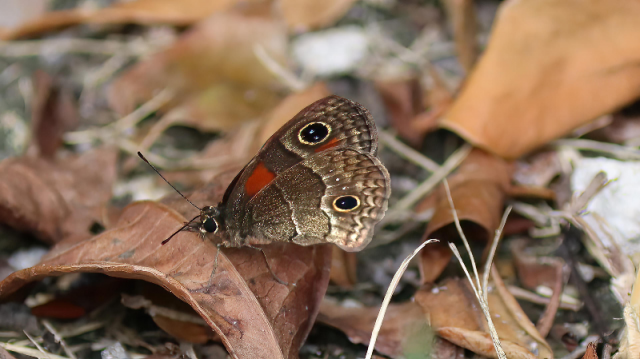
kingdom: Animalia
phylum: Arthropoda
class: Insecta
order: Lepidoptera
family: Nymphalidae
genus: Calisto
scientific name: Calisto micheneri
